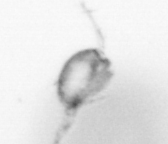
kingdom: Animalia
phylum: Arthropoda
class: Copepoda
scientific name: Copepoda
